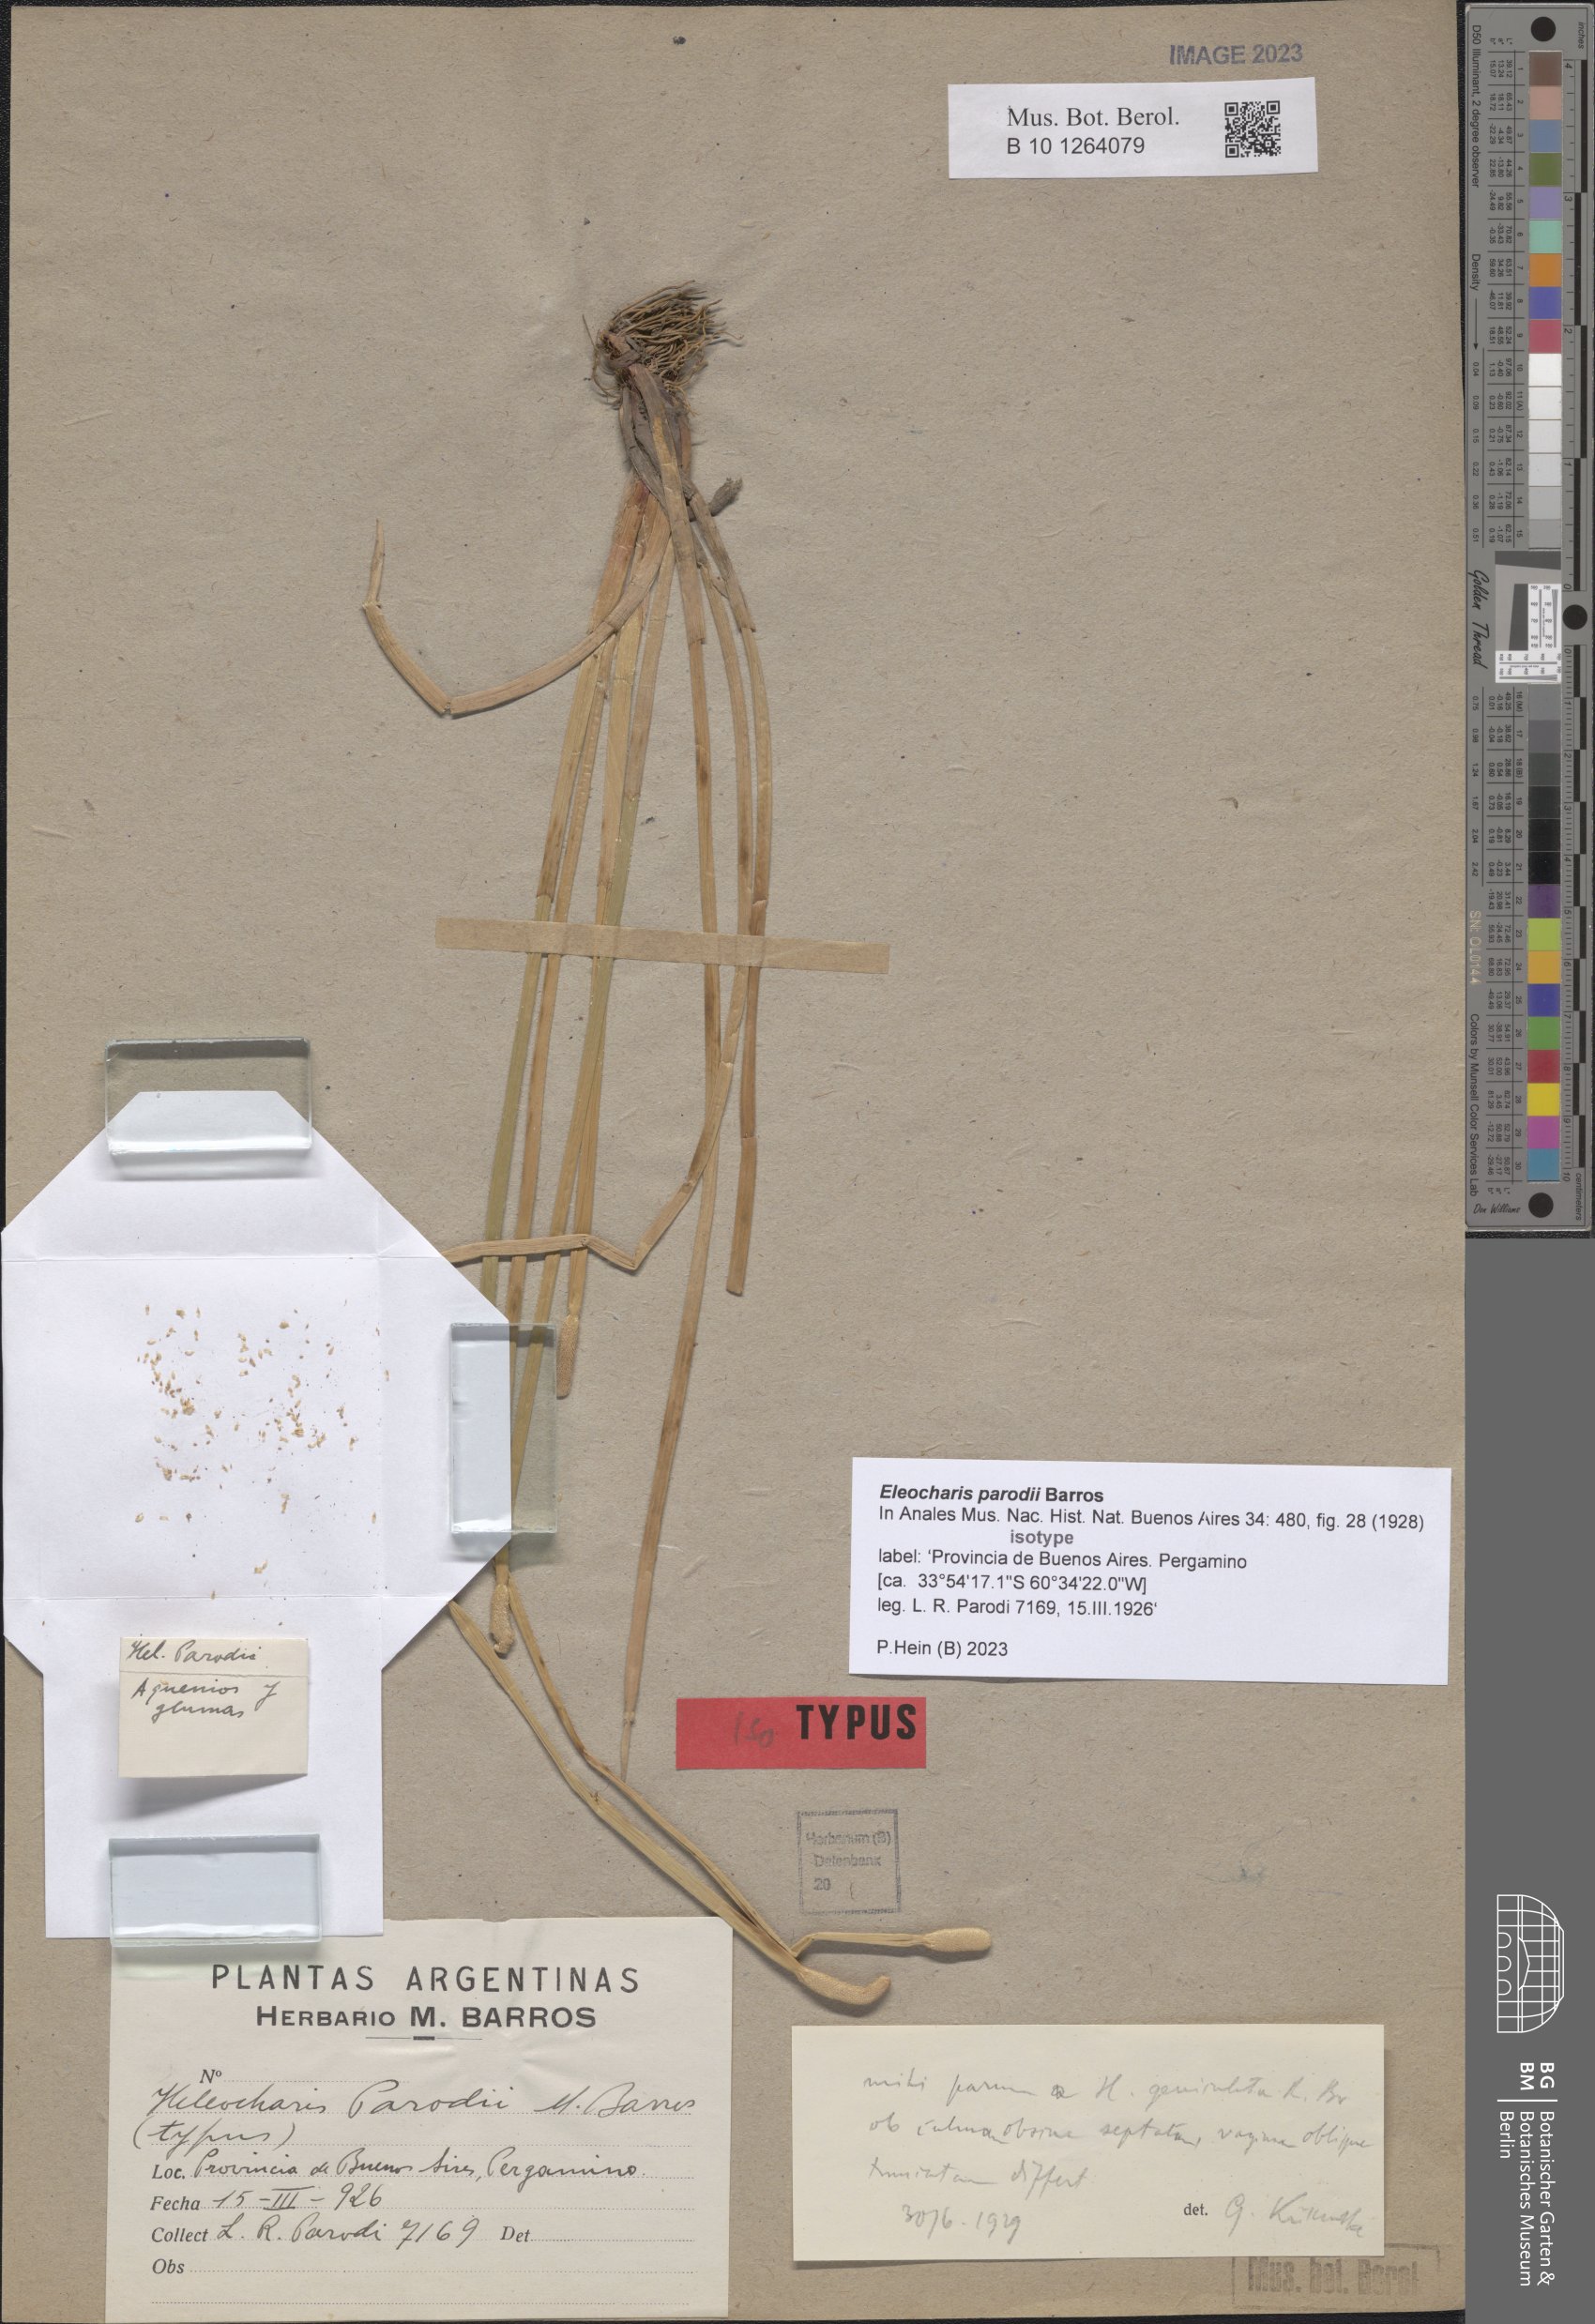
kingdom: Plantae
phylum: Tracheophyta
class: Liliopsida
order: Poales
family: Cyperaceae
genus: Eleocharis
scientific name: Eleocharis parodii
